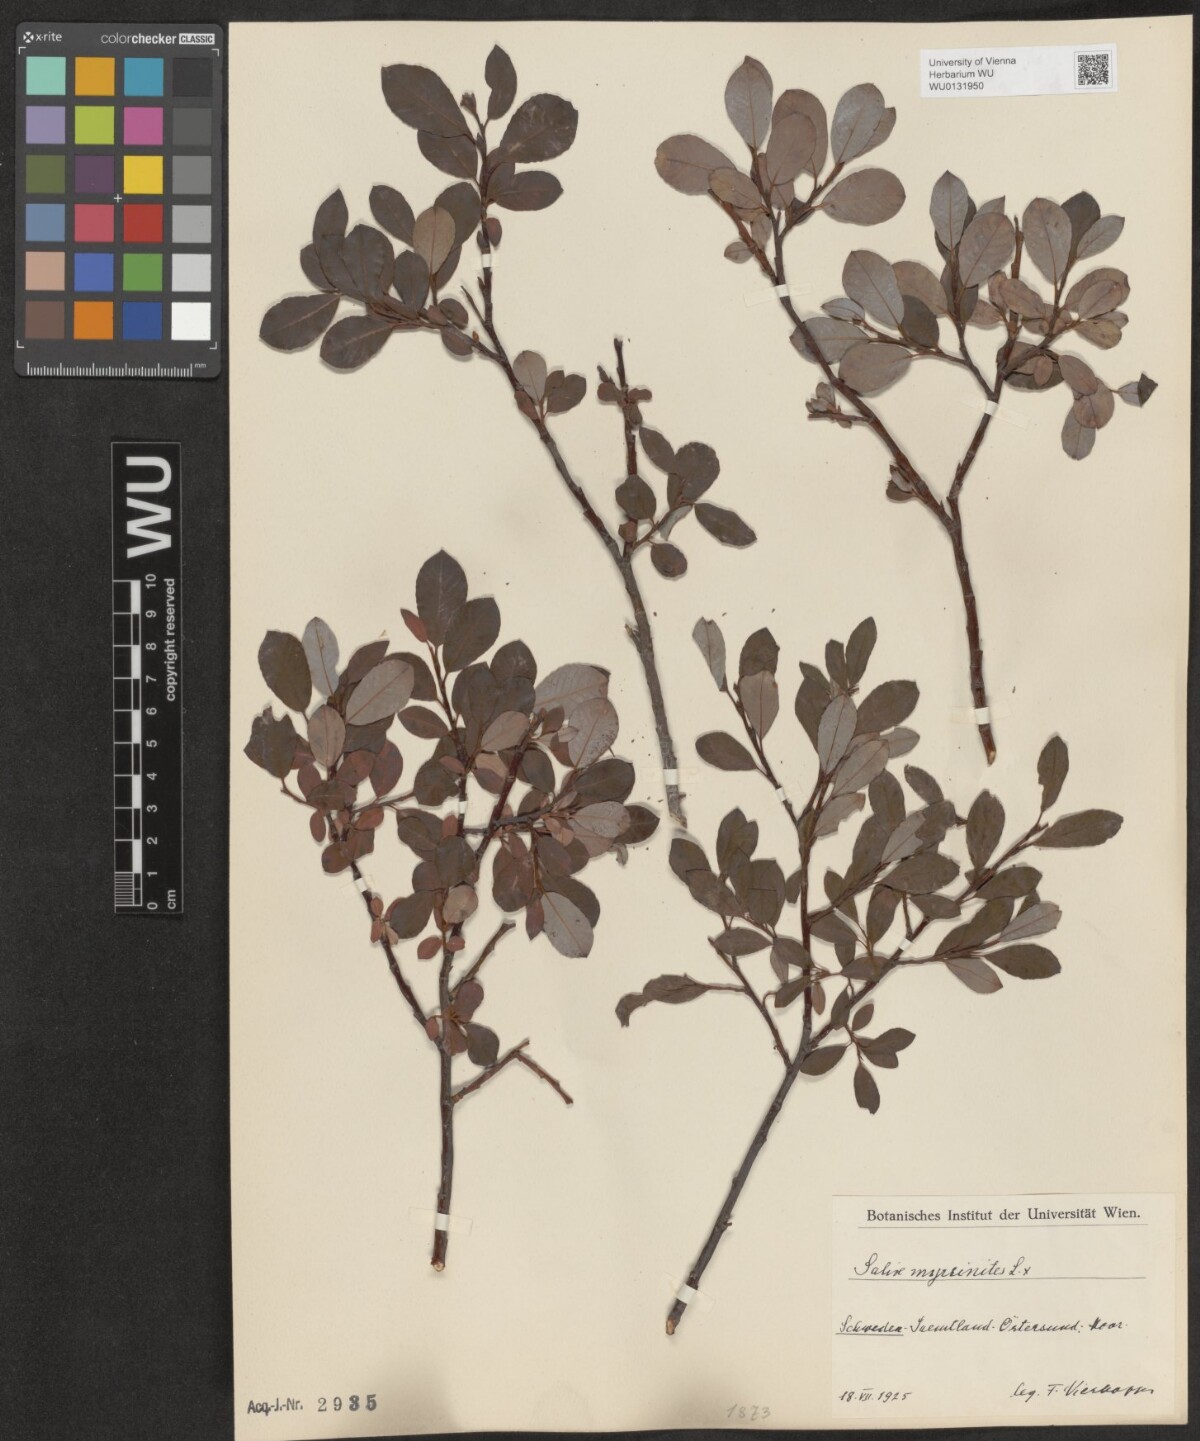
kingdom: Plantae
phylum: Tracheophyta
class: Magnoliopsida
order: Malpighiales
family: Salicaceae
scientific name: Salicaceae
